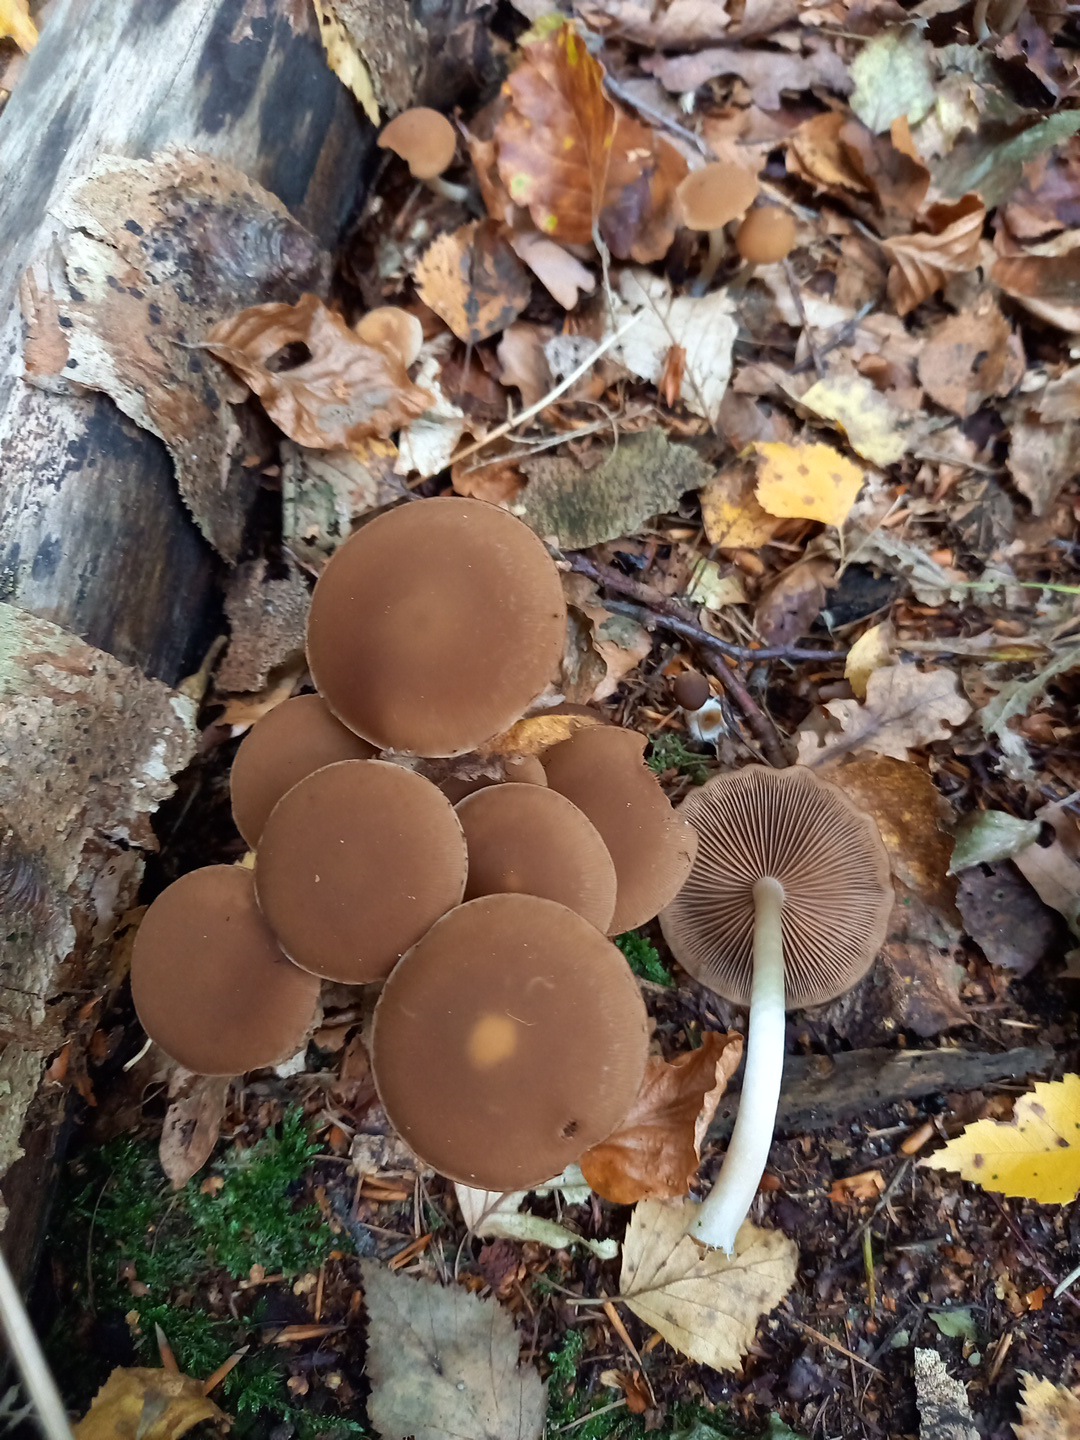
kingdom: Fungi
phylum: Basidiomycota
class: Agaricomycetes
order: Agaricales
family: Psathyrellaceae
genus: Psathyrella
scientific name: Psathyrella piluliformis
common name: lysstokket mørkhat
